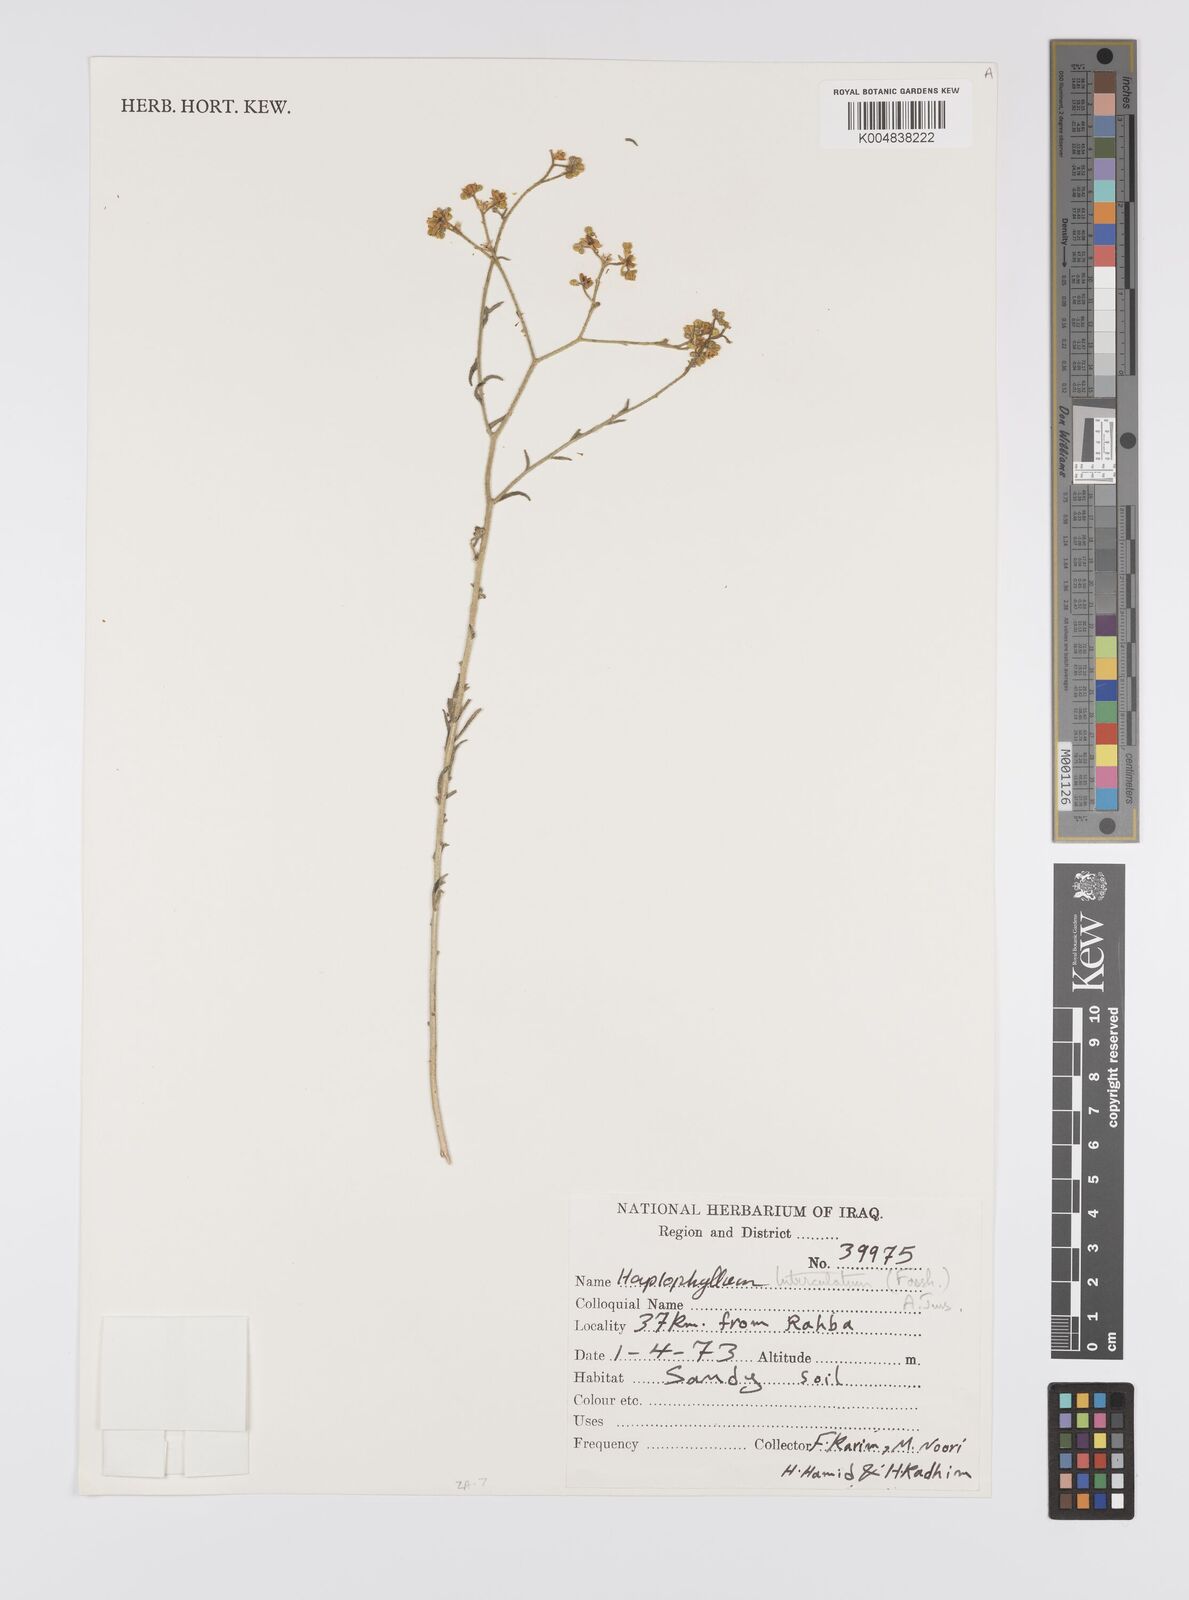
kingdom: Plantae
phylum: Tracheophyta
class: Magnoliopsida
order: Sapindales
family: Rutaceae
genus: Haplophyllum
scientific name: Haplophyllum tuberculatum
